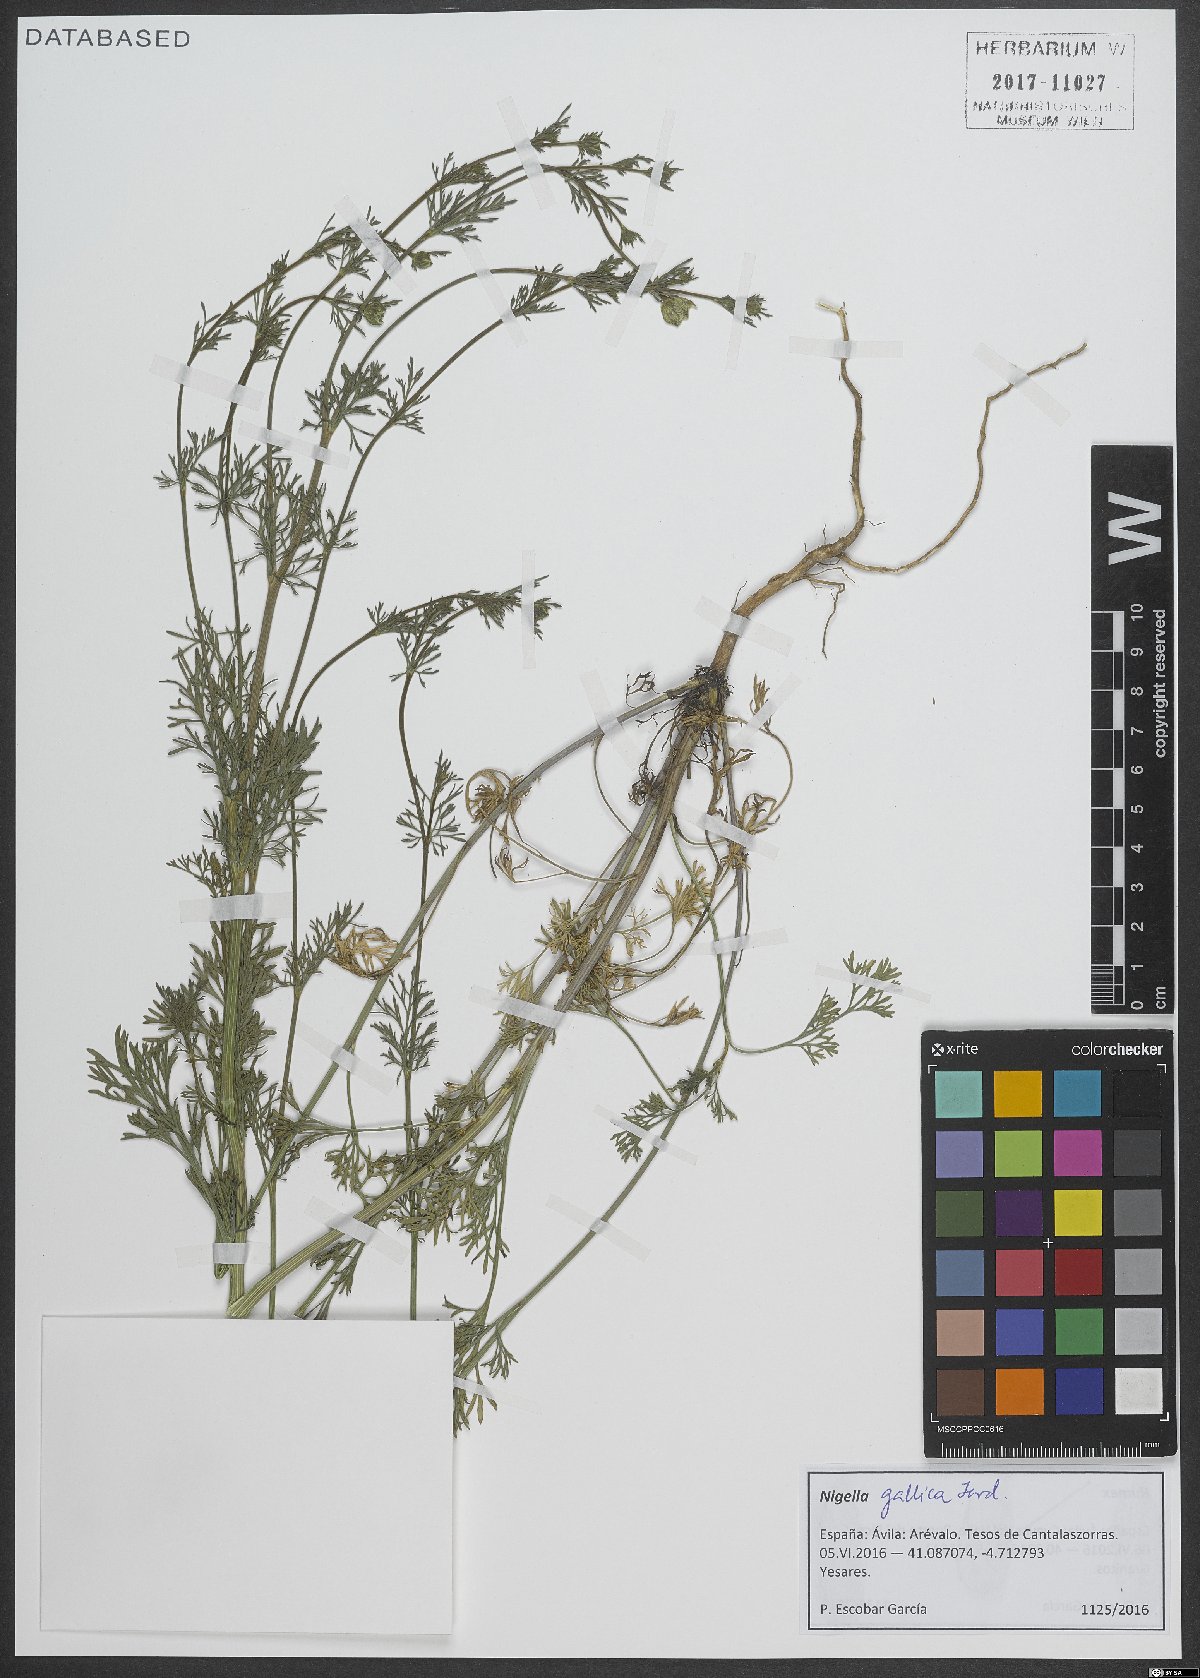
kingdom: Plantae
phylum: Tracheophyta
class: Magnoliopsida
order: Ranunculales
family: Ranunculaceae
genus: Nigella
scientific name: Nigella gallica
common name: Pale fennel-flower
